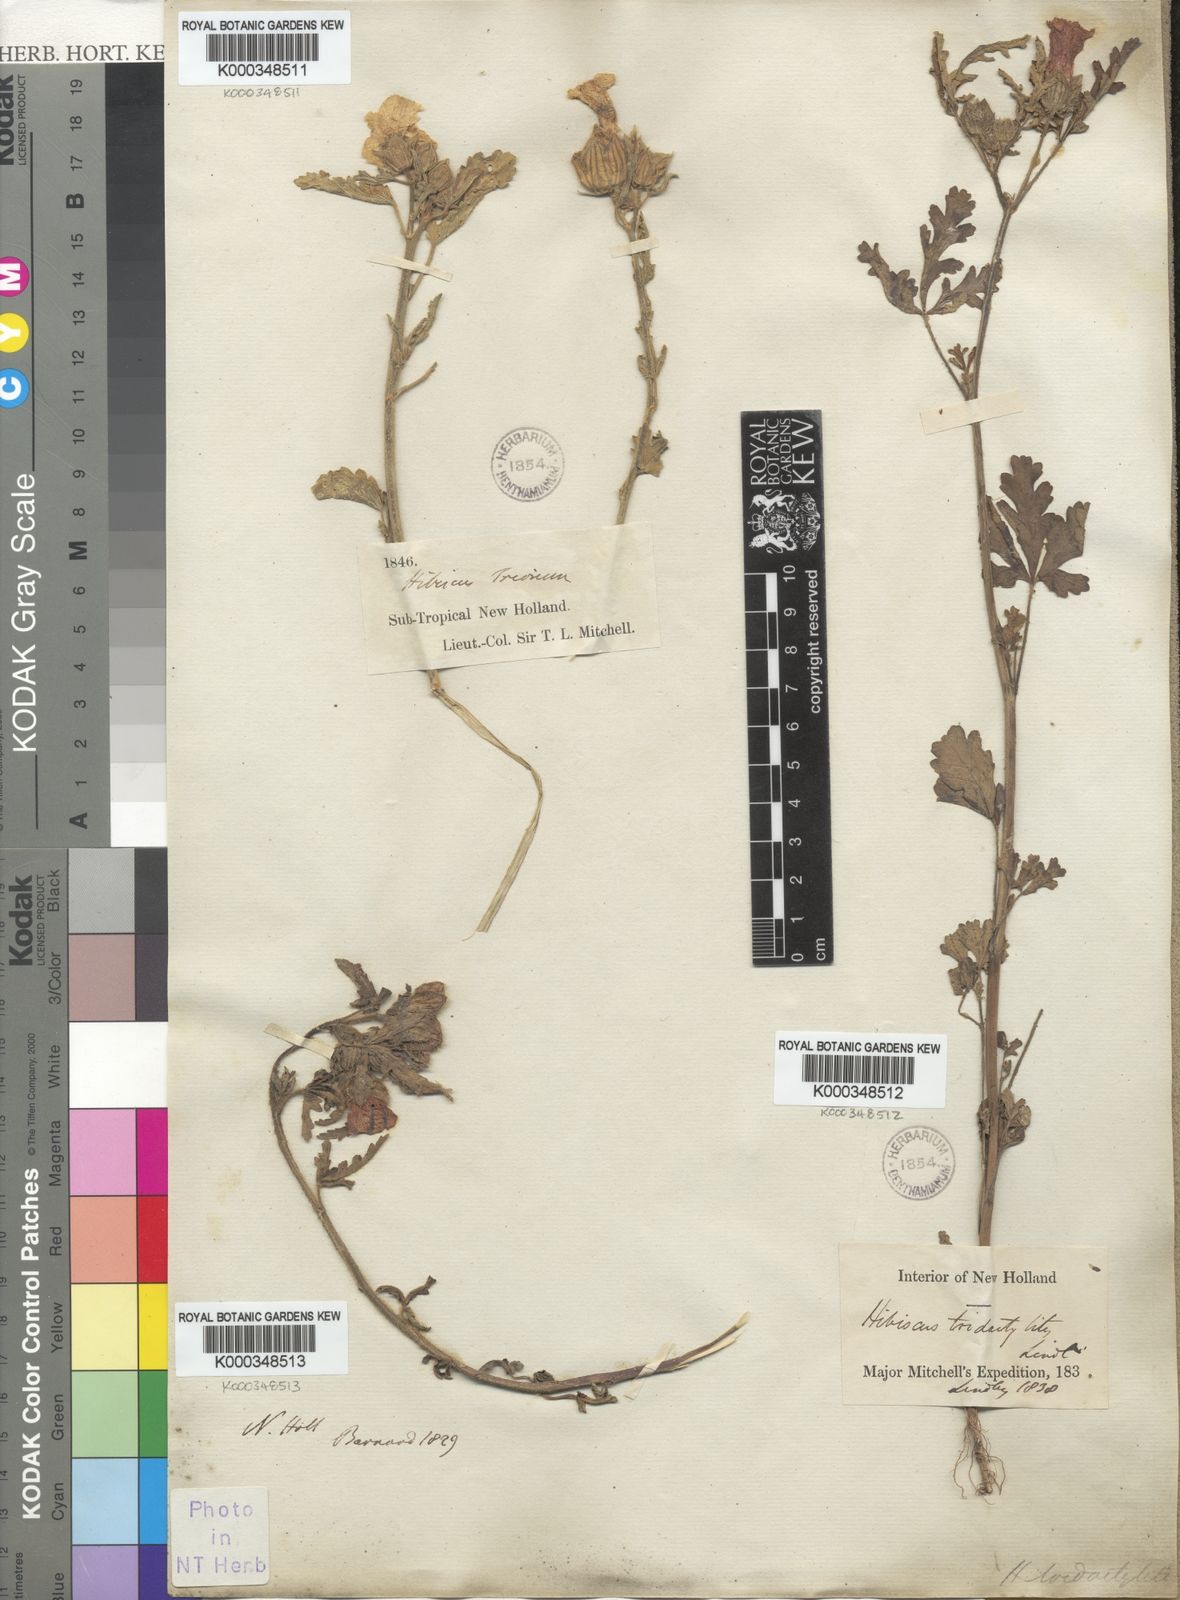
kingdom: Plantae
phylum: Tracheophyta
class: Magnoliopsida
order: Malvales
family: Malvaceae
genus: Hibiscus
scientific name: Hibiscus trionum
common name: Bladder ketmia
